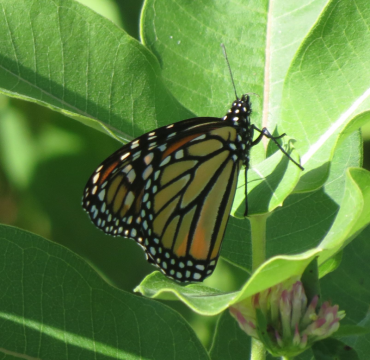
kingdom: Animalia
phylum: Arthropoda
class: Insecta
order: Lepidoptera
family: Nymphalidae
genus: Danaus
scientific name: Danaus plexippus
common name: Monarch
